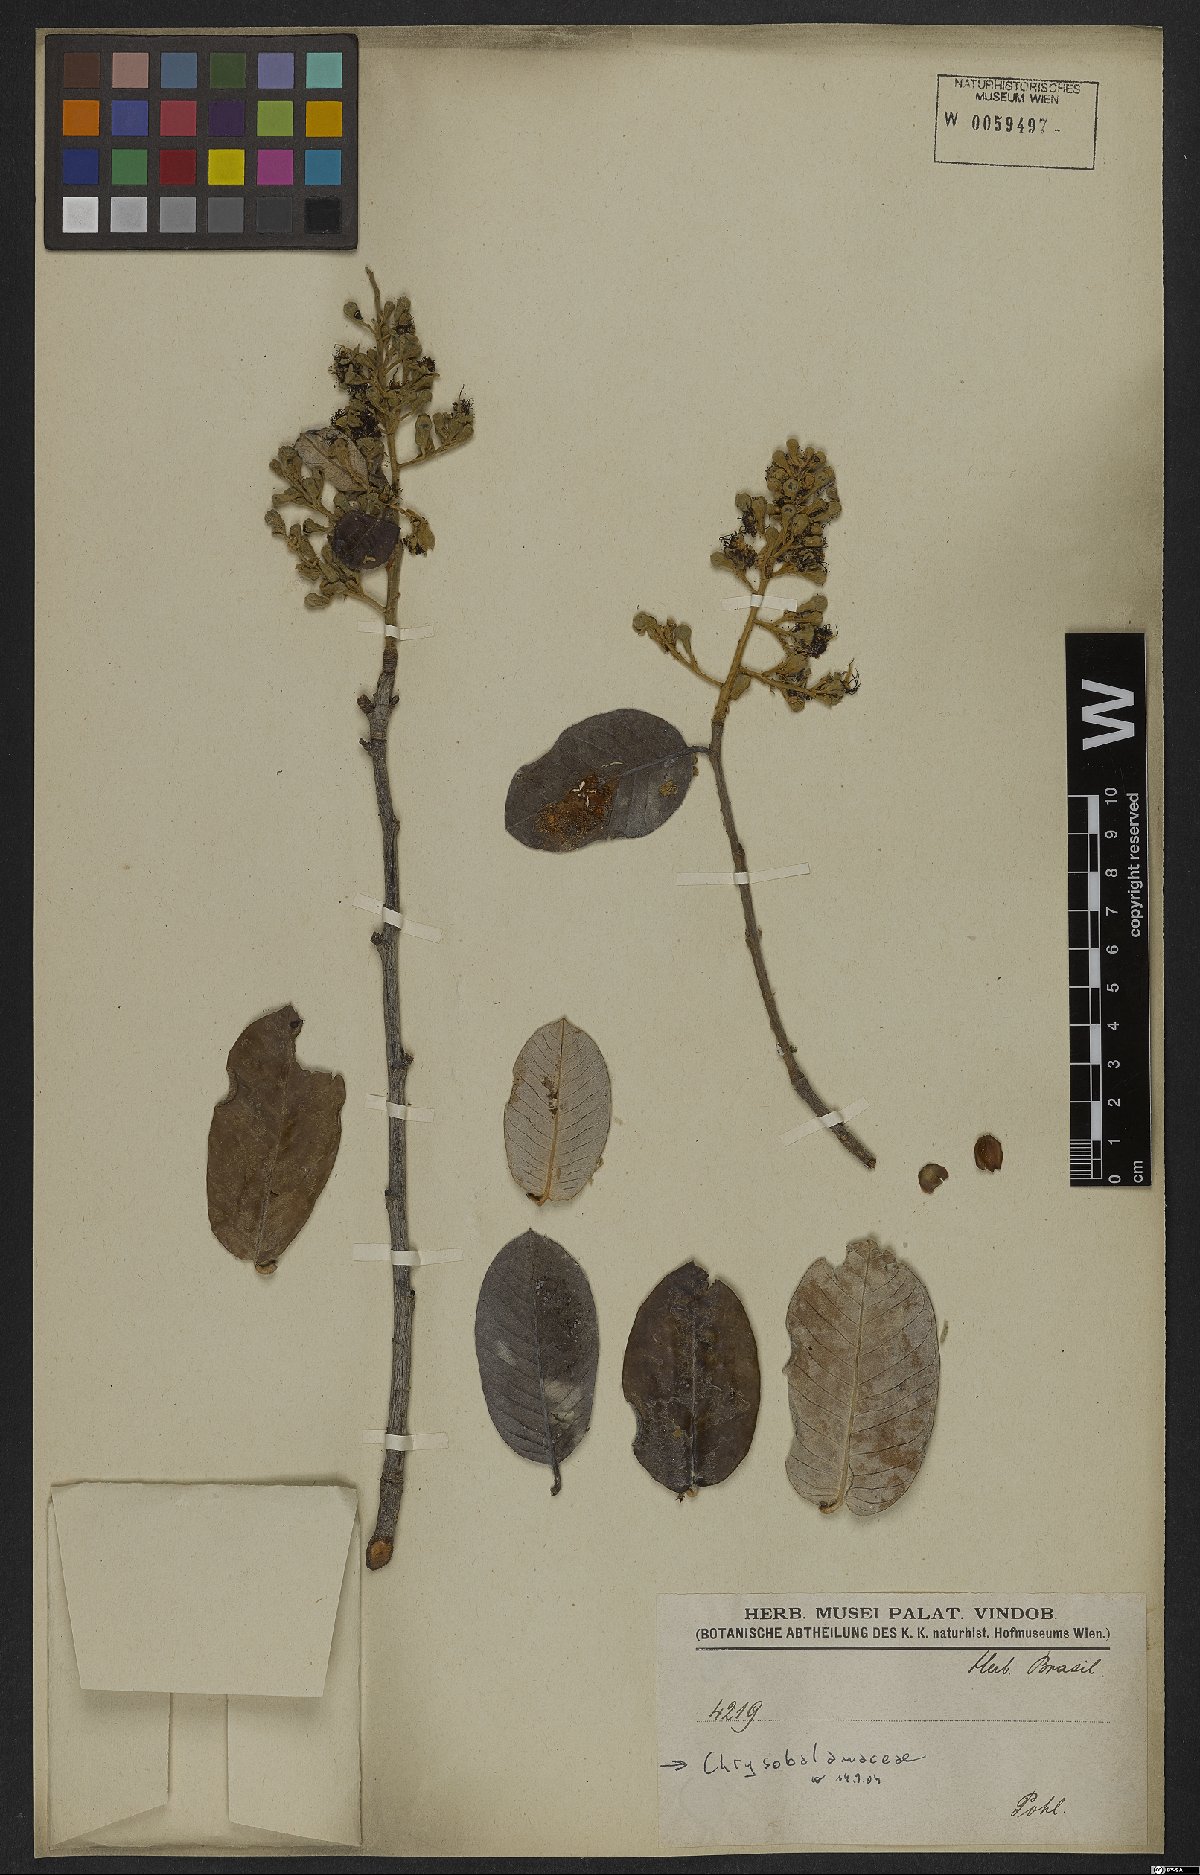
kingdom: Plantae
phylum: Tracheophyta
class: Magnoliopsida
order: Malpighiales
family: Chrysobalanaceae
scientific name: Chrysobalanaceae
